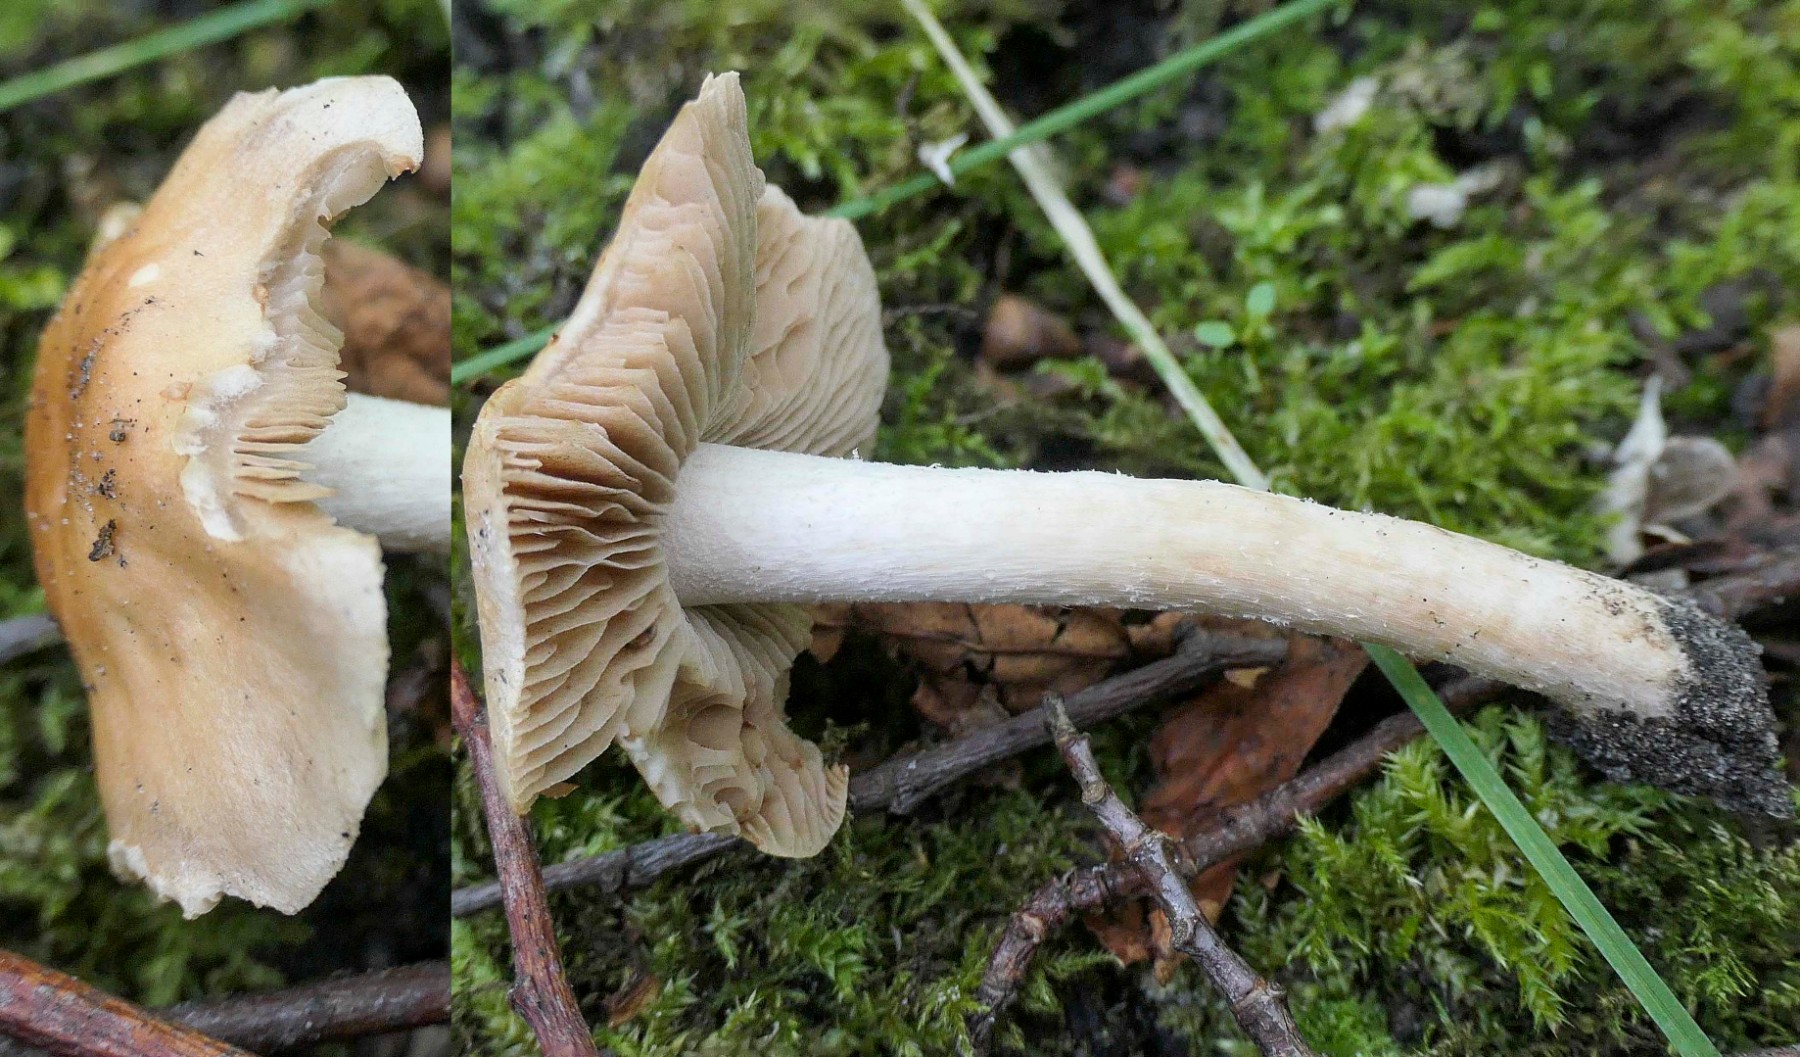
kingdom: Fungi
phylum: Basidiomycota
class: Agaricomycetes
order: Agaricales
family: Hymenogastraceae
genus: Hebeloma
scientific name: Hebeloma
